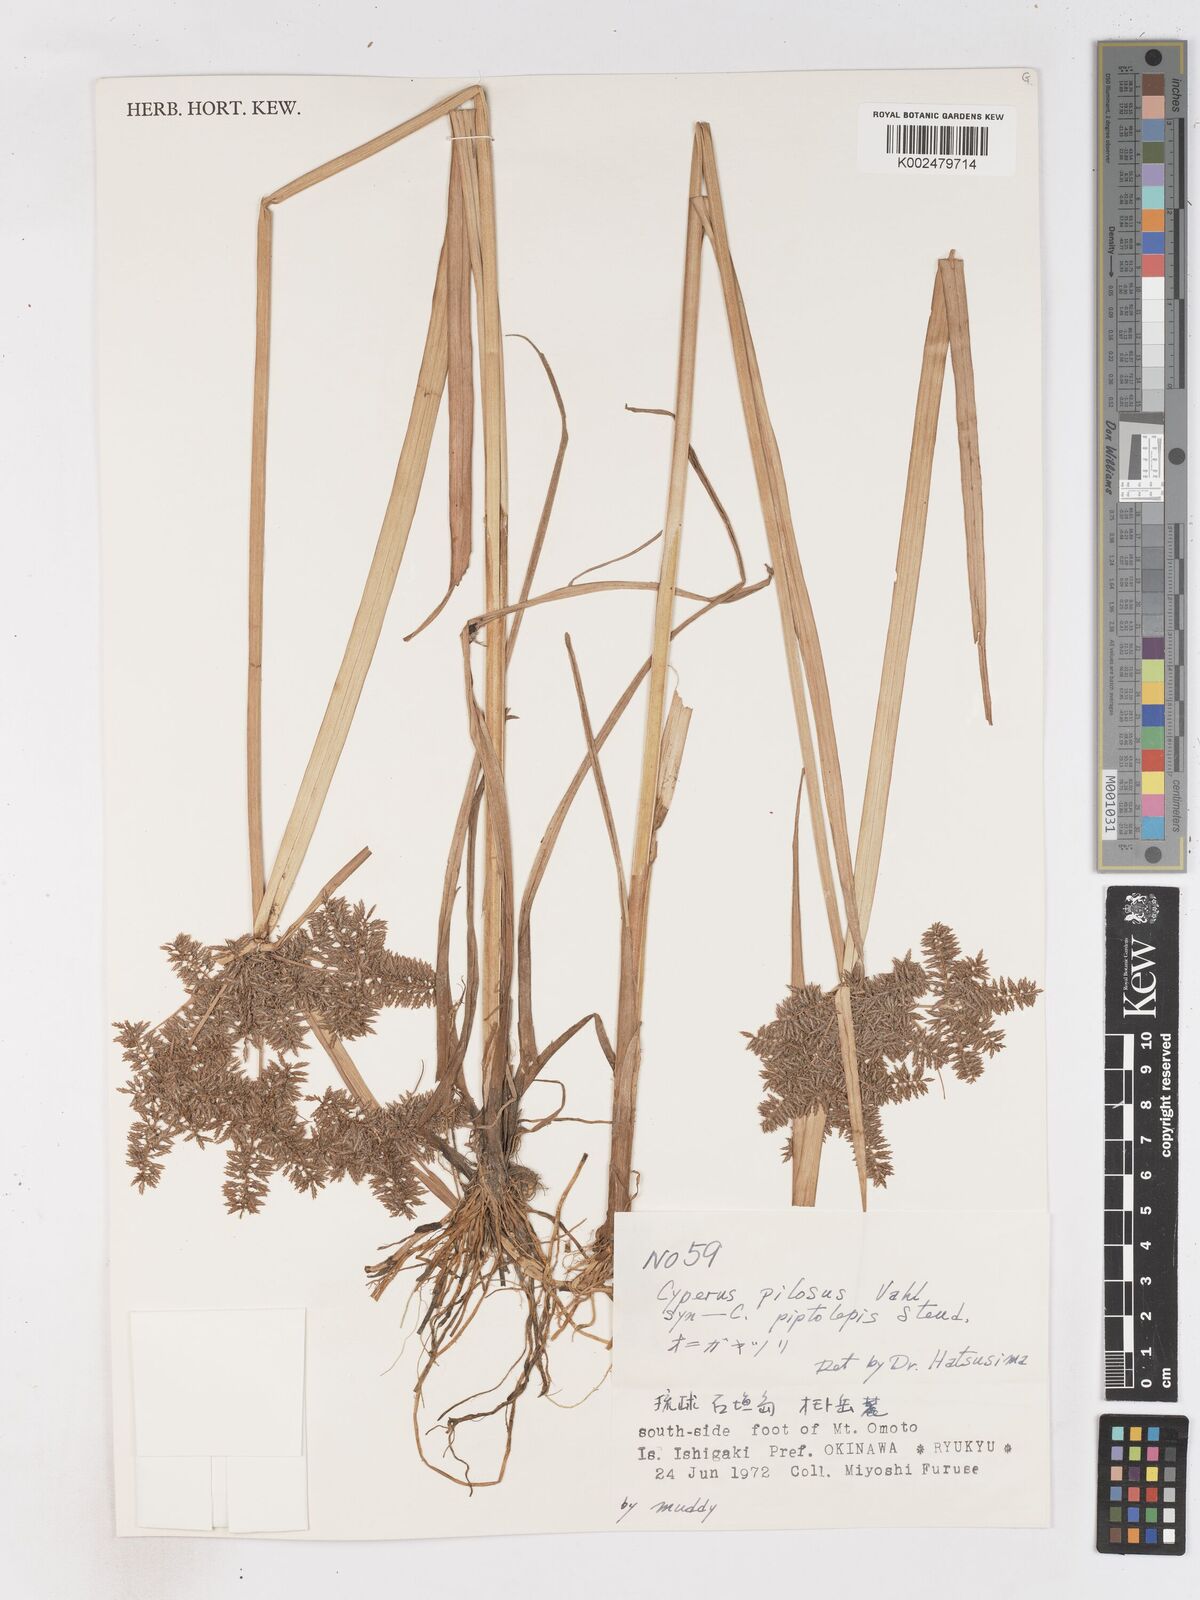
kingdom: Plantae
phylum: Tracheophyta
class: Liliopsida
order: Poales
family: Cyperaceae
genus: Cyperus
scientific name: Cyperus pilosus
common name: Fuzzy flatsedge
